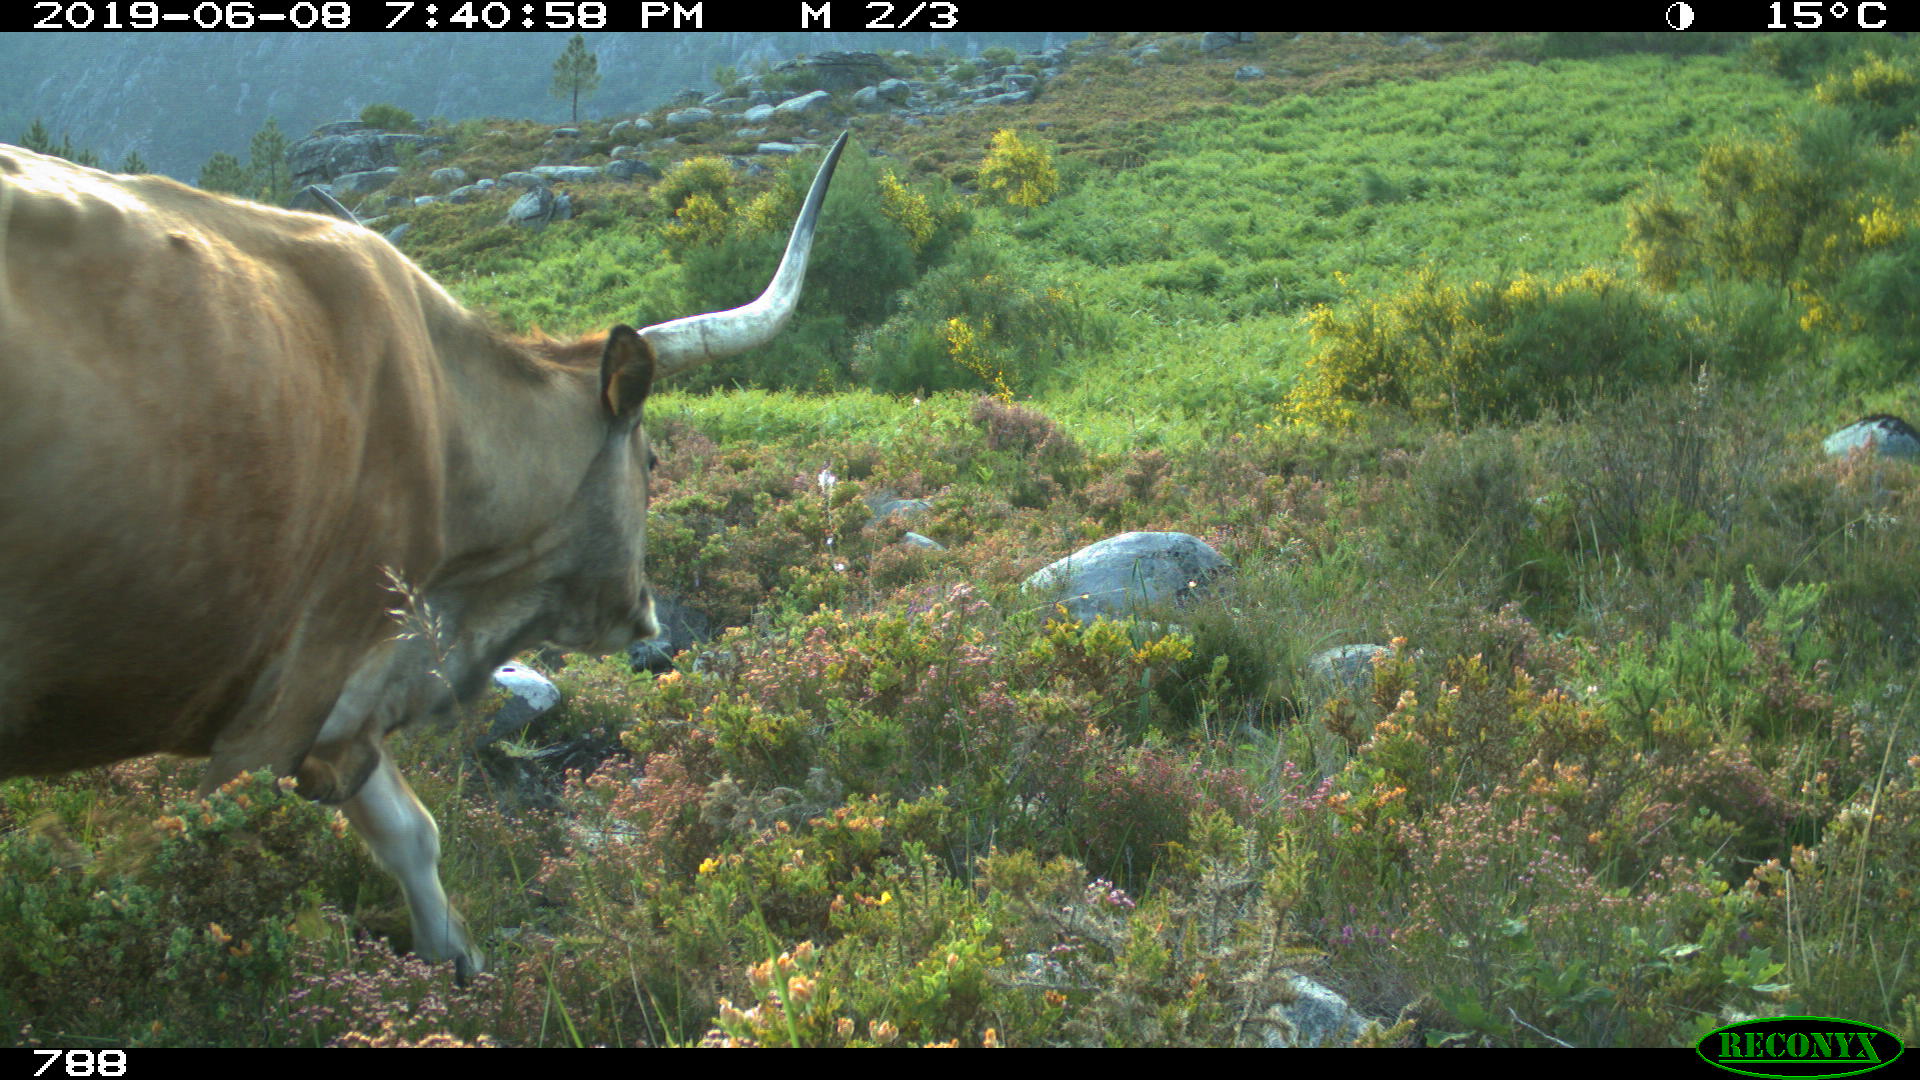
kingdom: Animalia
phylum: Chordata
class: Mammalia
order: Artiodactyla
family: Bovidae
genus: Bos
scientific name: Bos taurus
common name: Domesticated cattle
